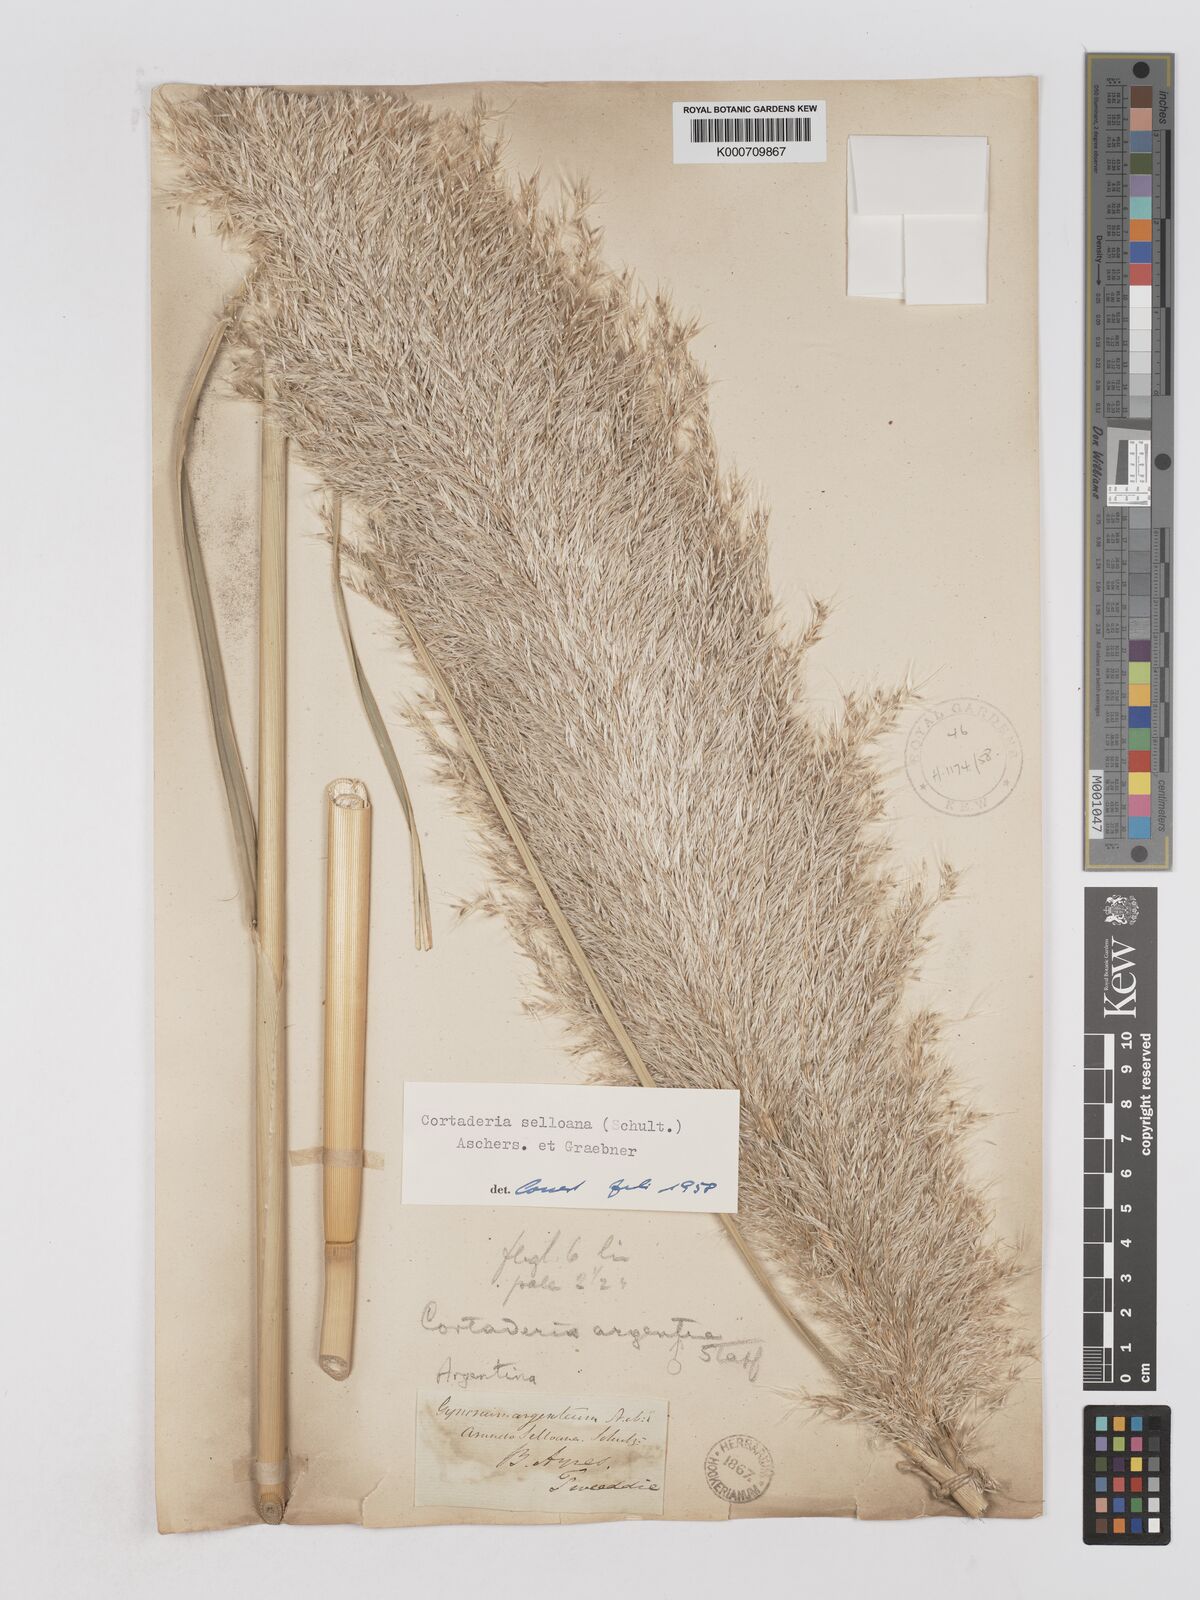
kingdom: Plantae
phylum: Tracheophyta
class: Liliopsida
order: Poales
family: Poaceae
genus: Cortaderia
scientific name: Cortaderia selloana
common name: Uruguayan pampas grass
